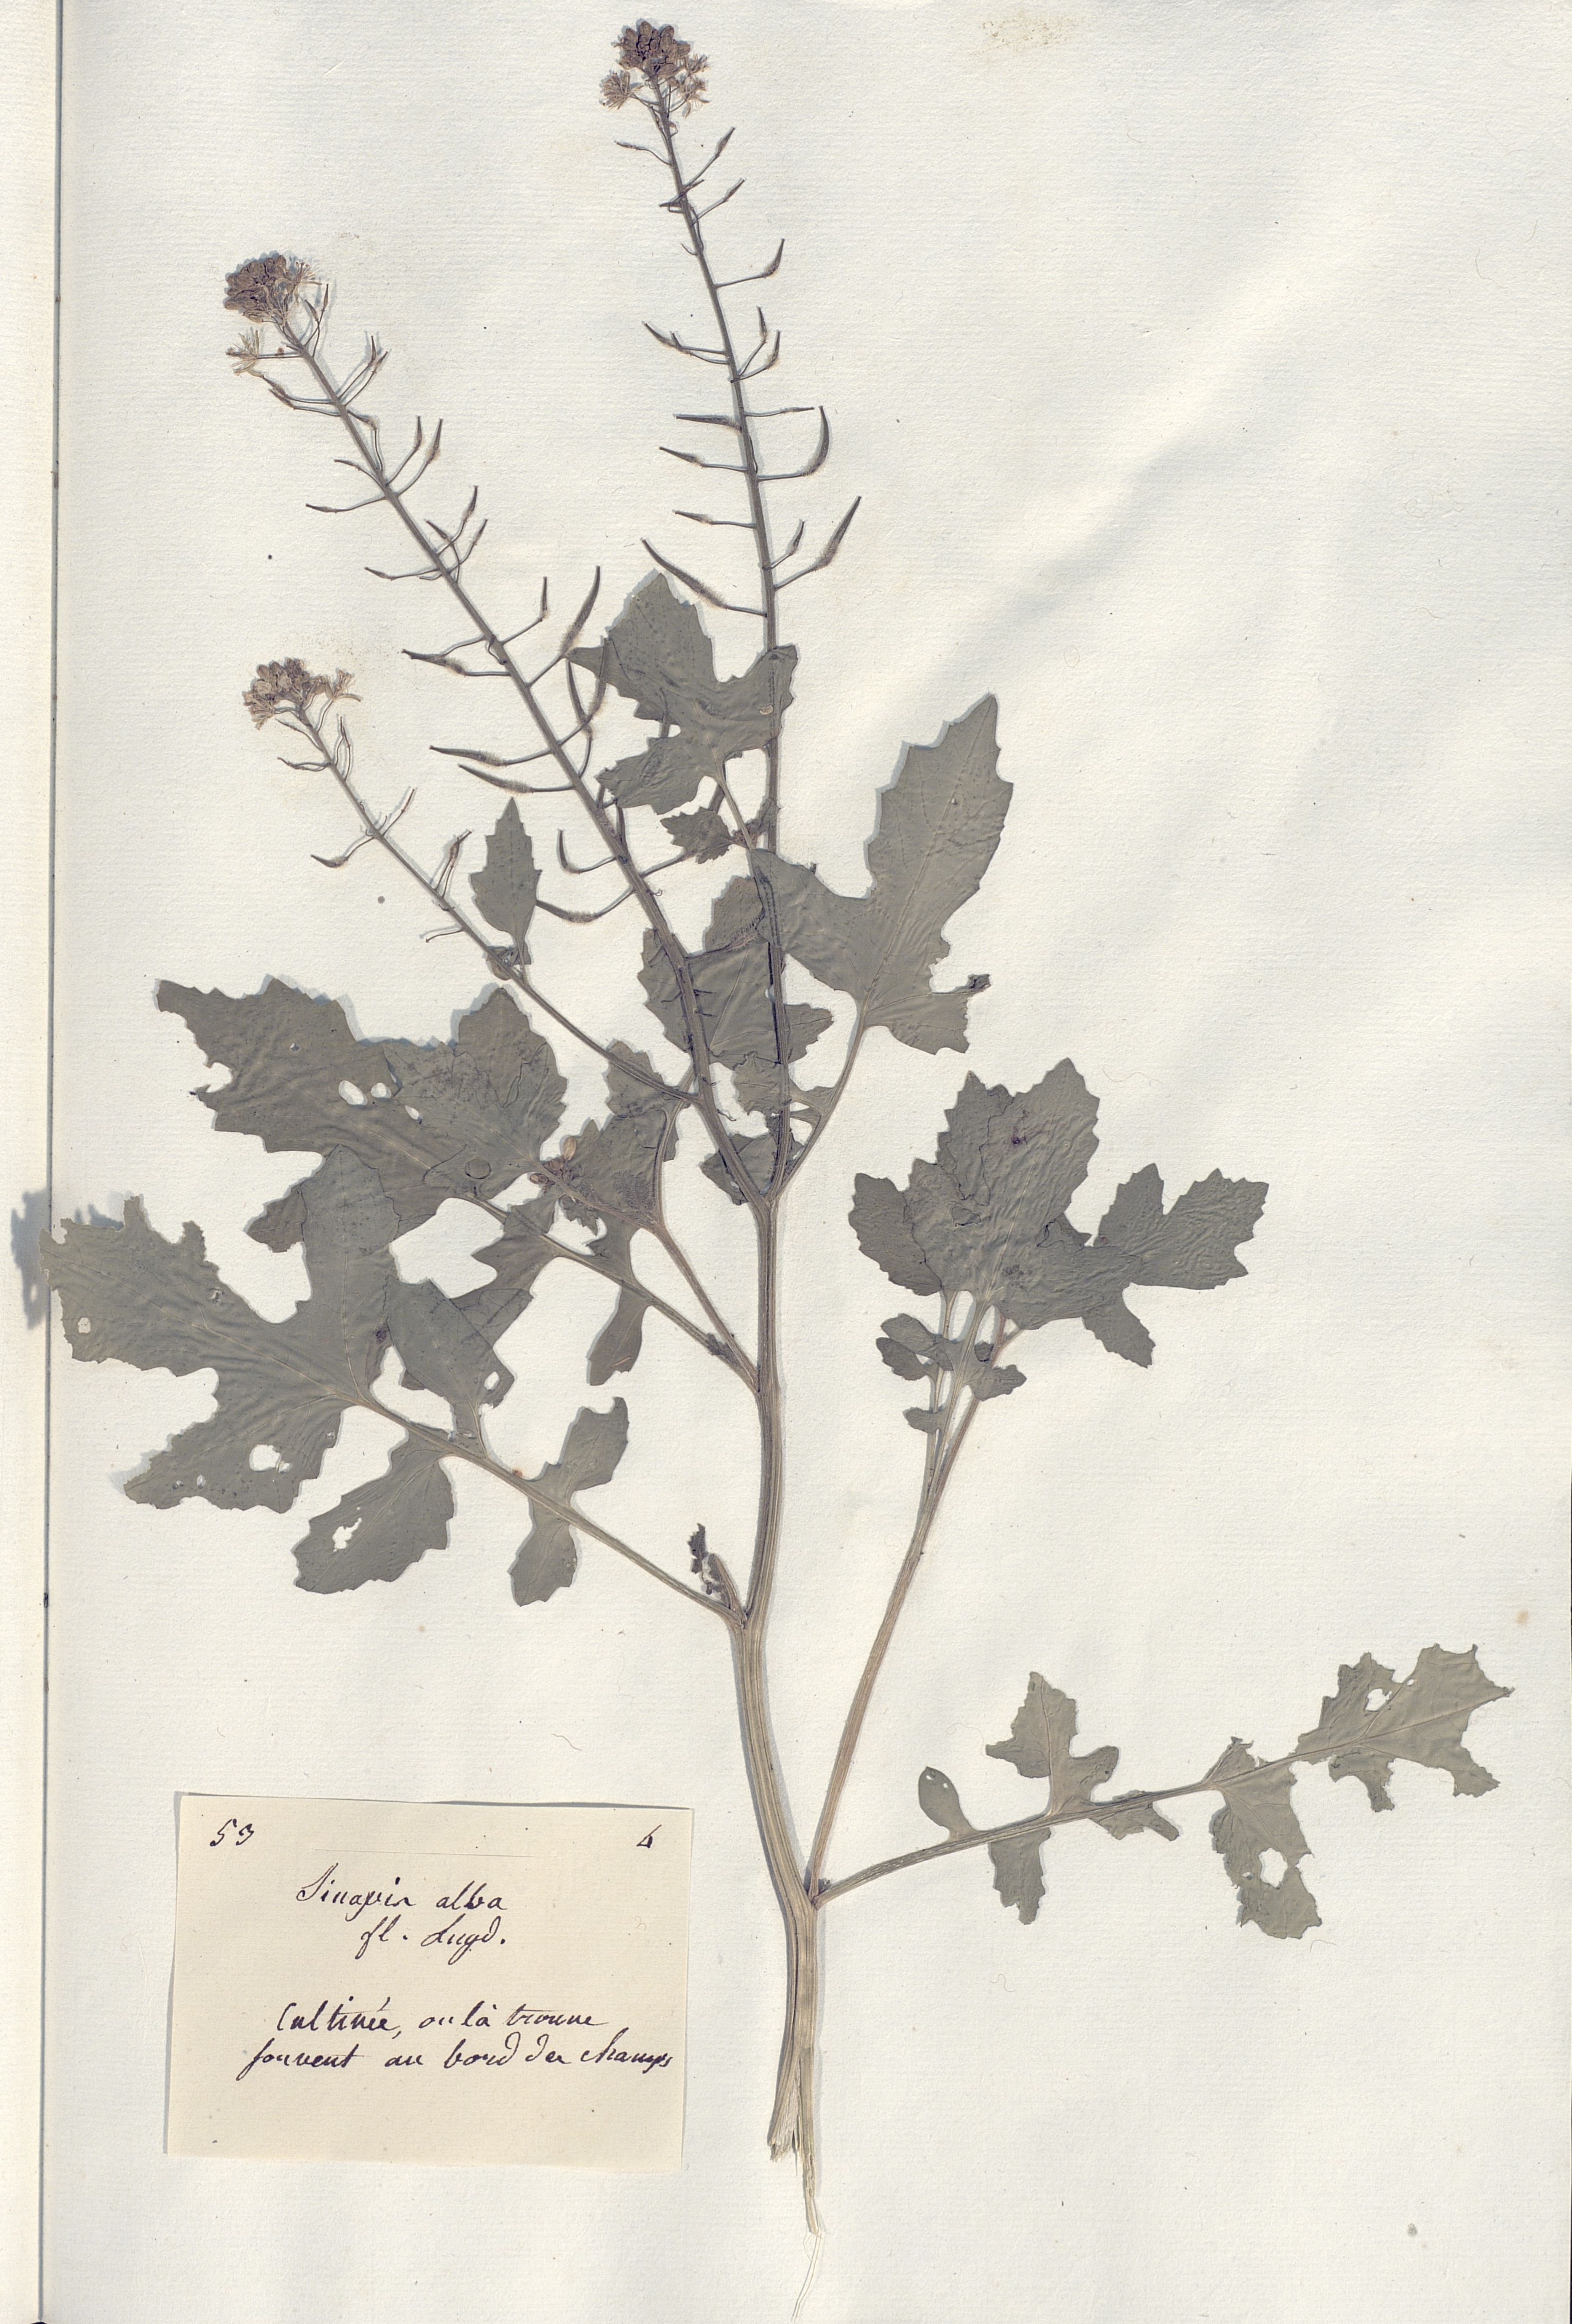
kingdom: Plantae
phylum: Tracheophyta
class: Magnoliopsida
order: Brassicales
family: Brassicaceae
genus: Sinapis
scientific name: Sinapis alba
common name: White mustard
